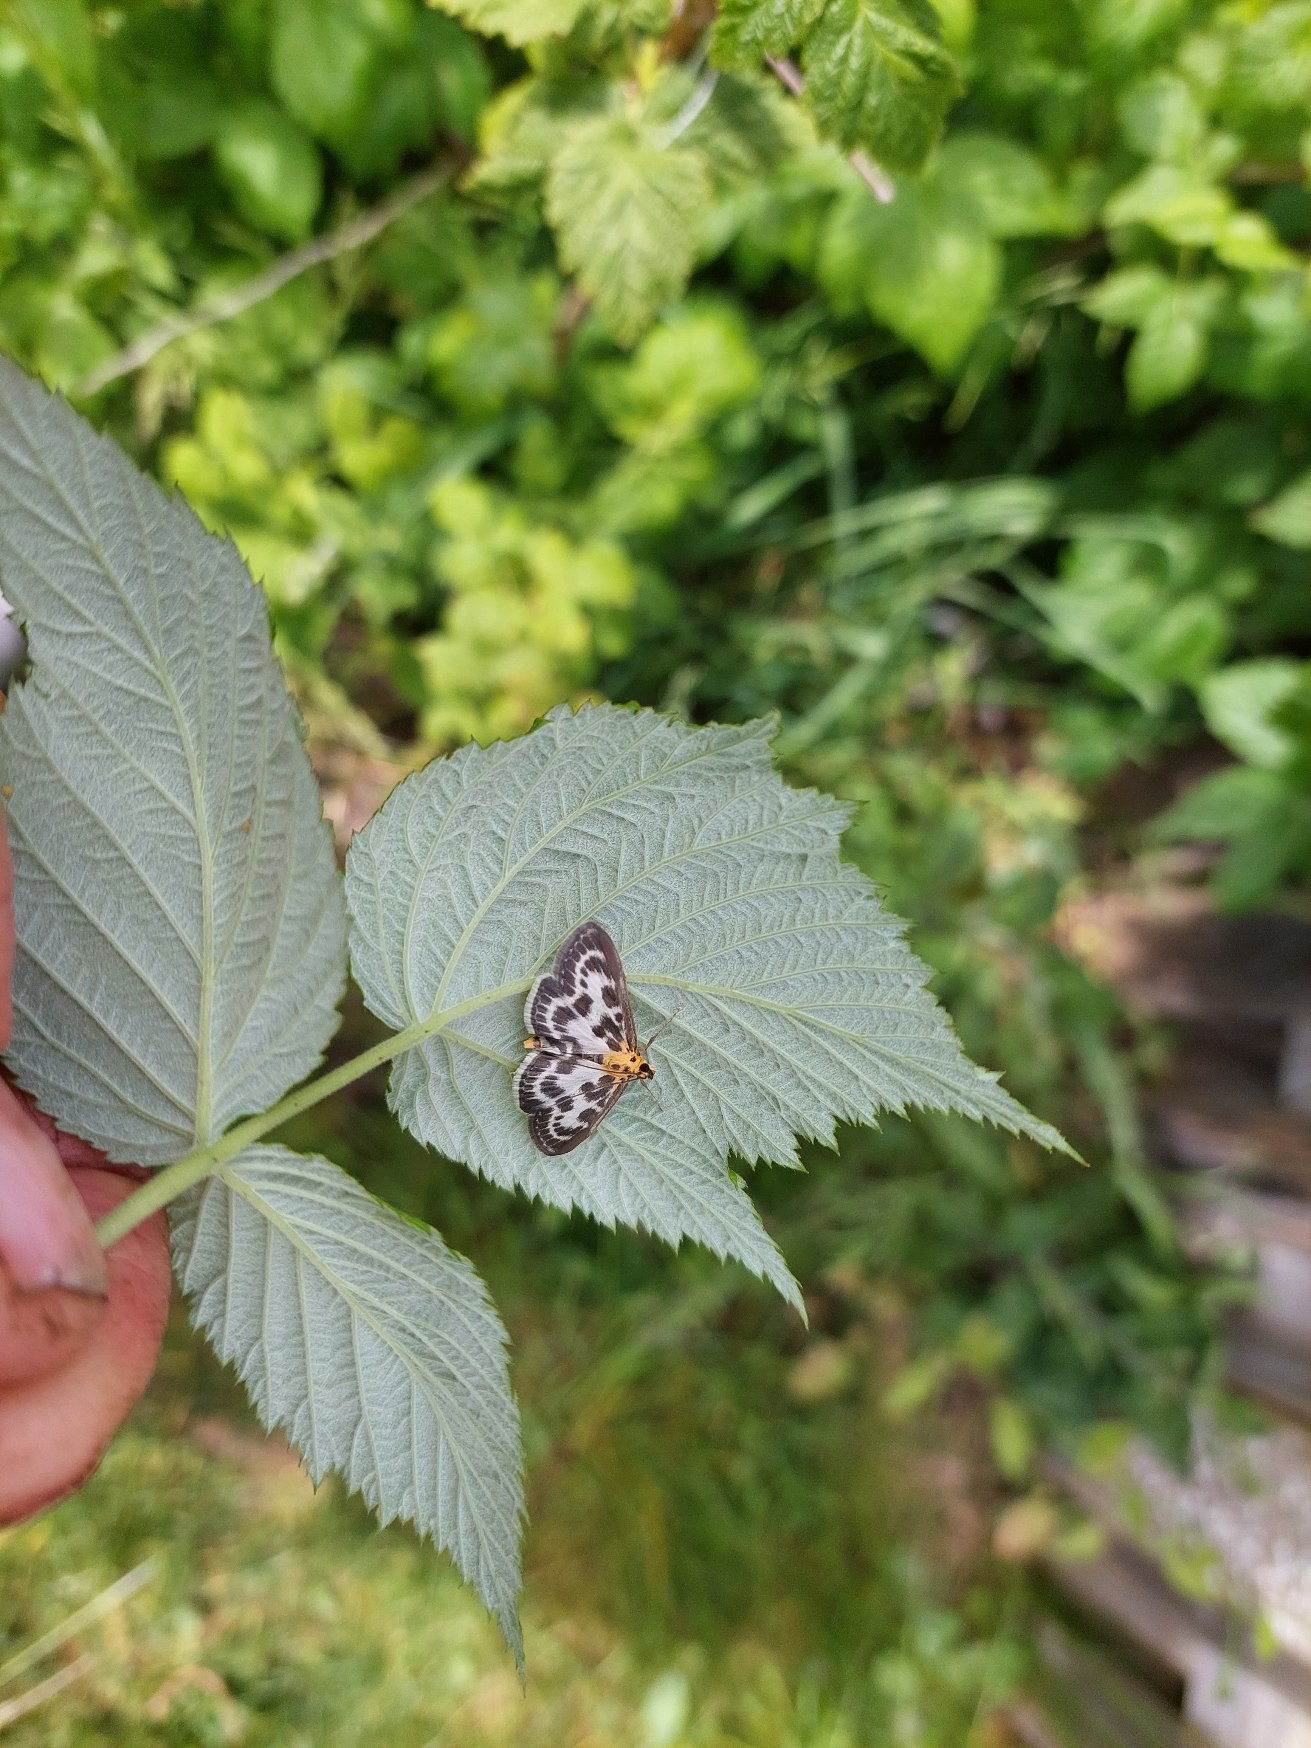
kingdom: Animalia
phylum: Arthropoda
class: Insecta
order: Lepidoptera
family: Crambidae
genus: Anania
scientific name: Anania hortulata
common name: Nældehalvmøl
